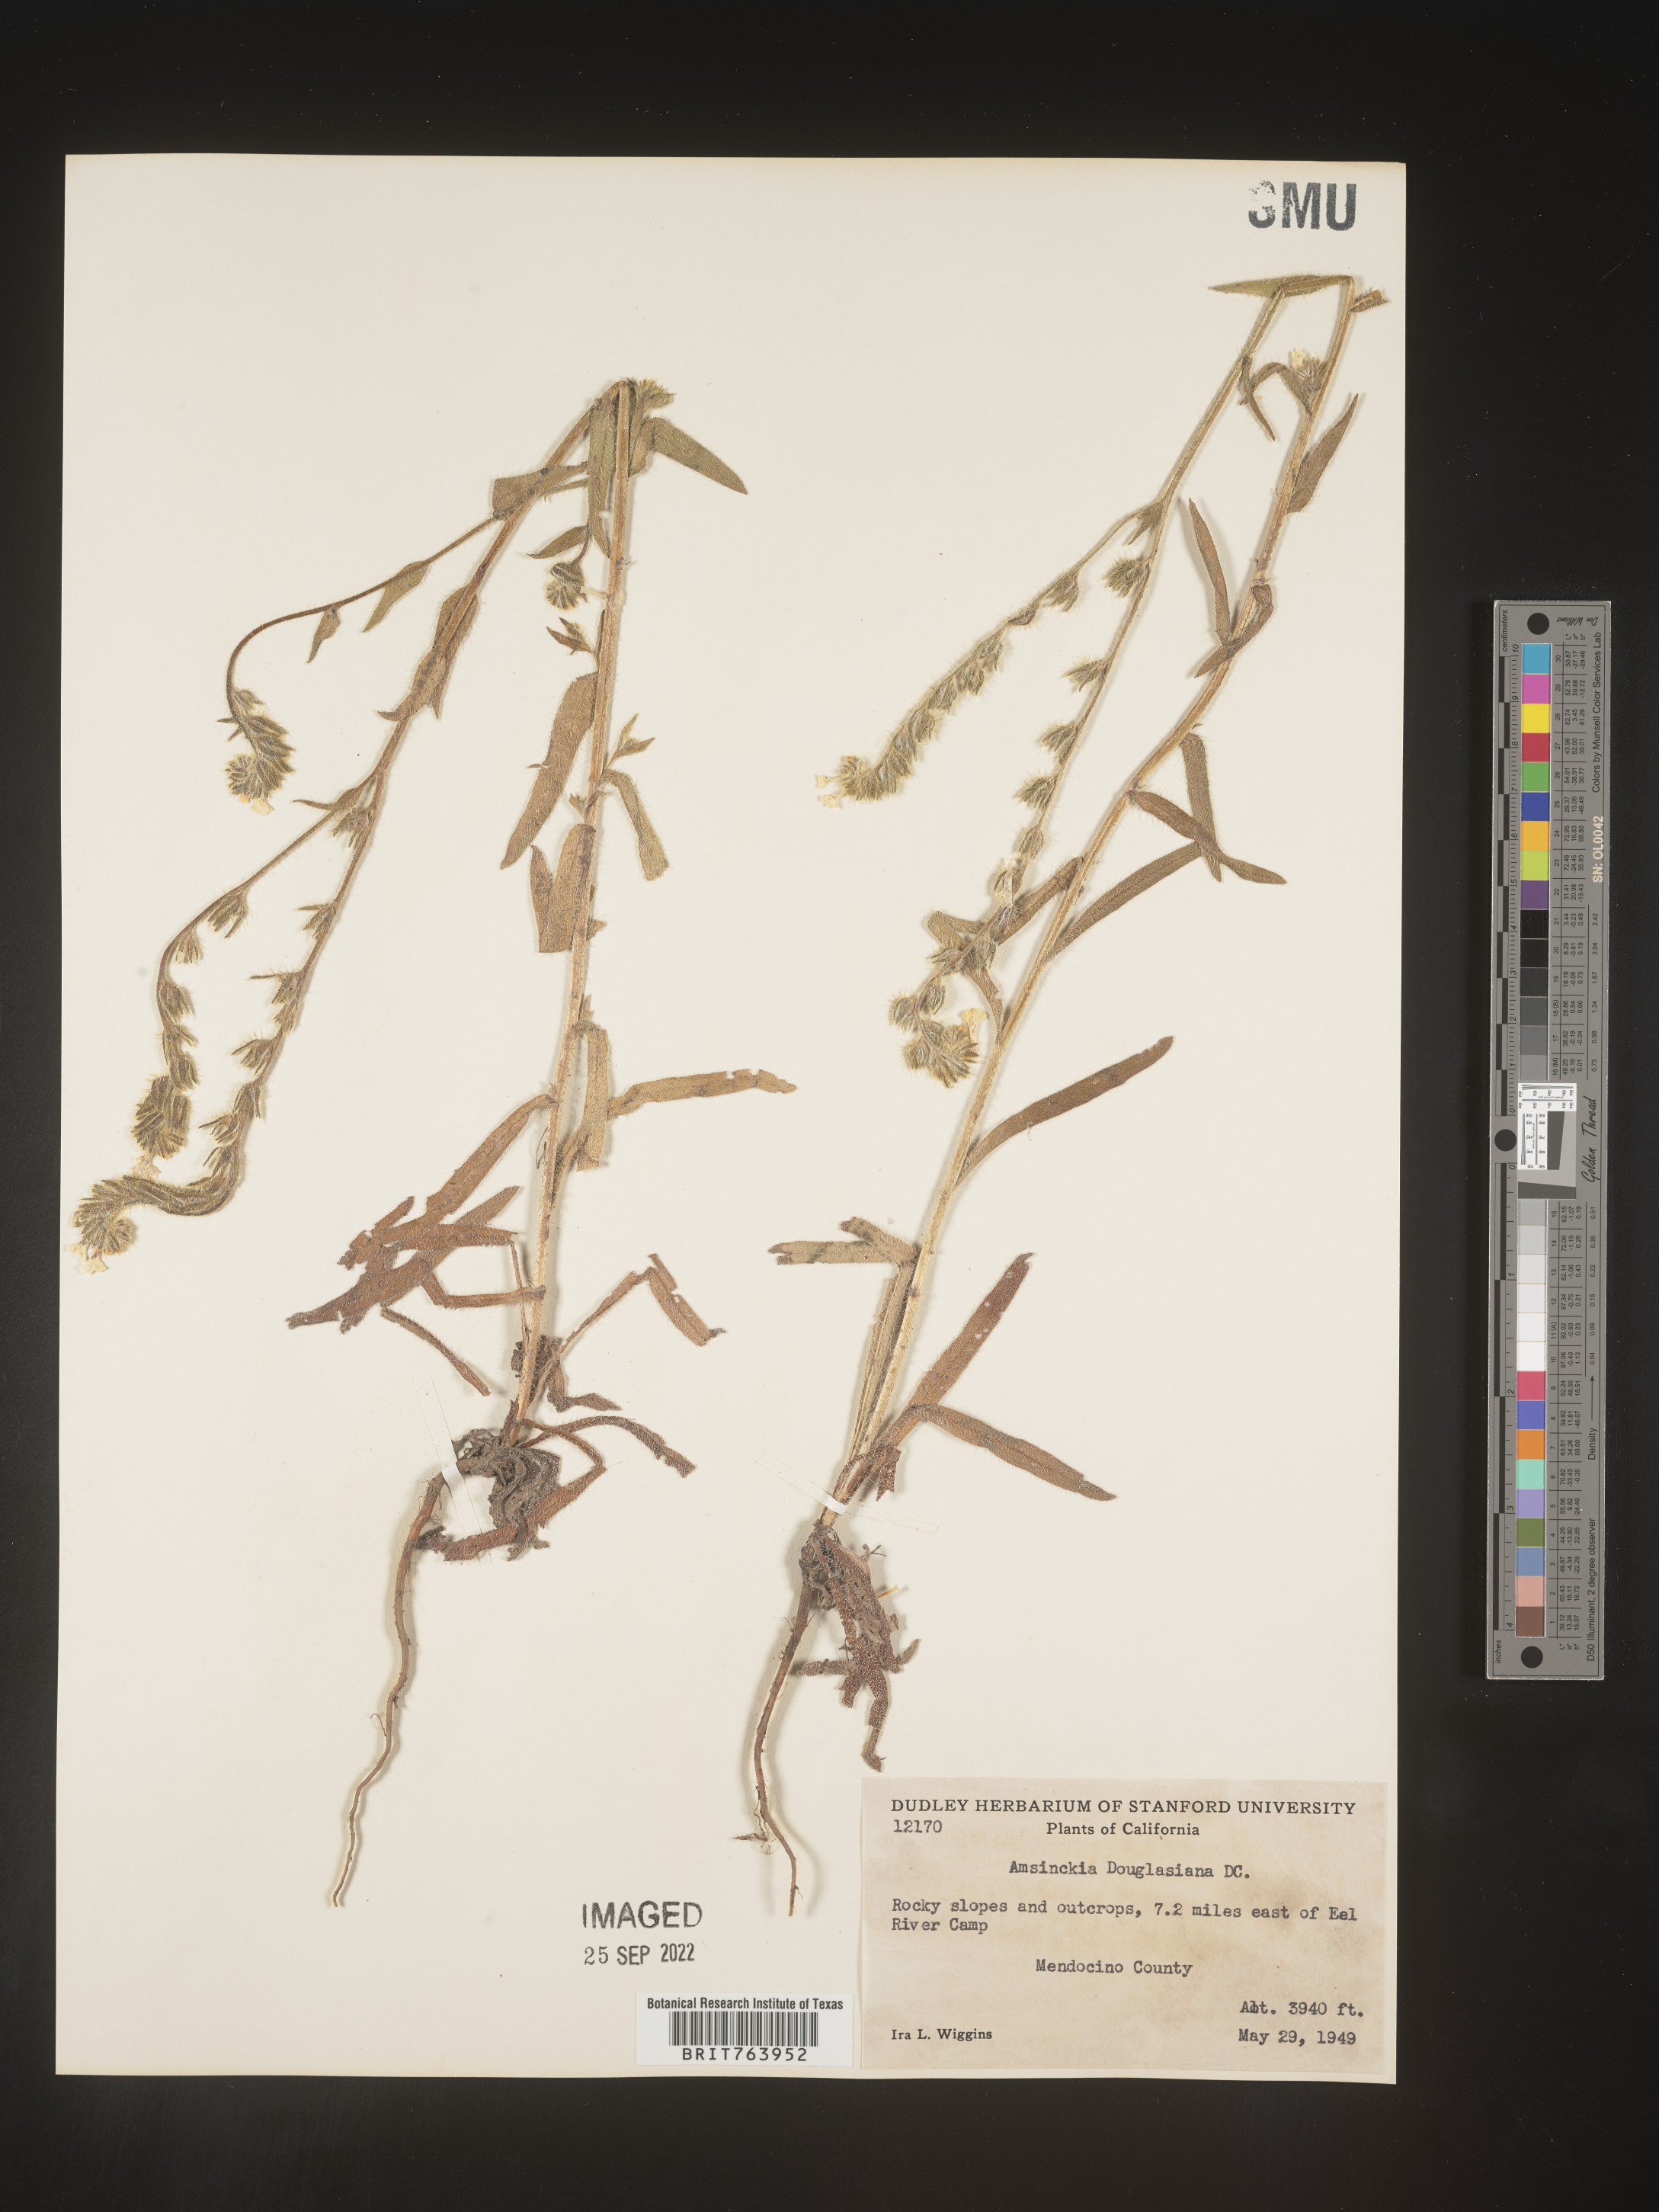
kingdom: Plantae
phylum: Tracheophyta
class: Magnoliopsida
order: Boraginales
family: Boraginaceae
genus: Amsinckia
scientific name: Amsinckia
